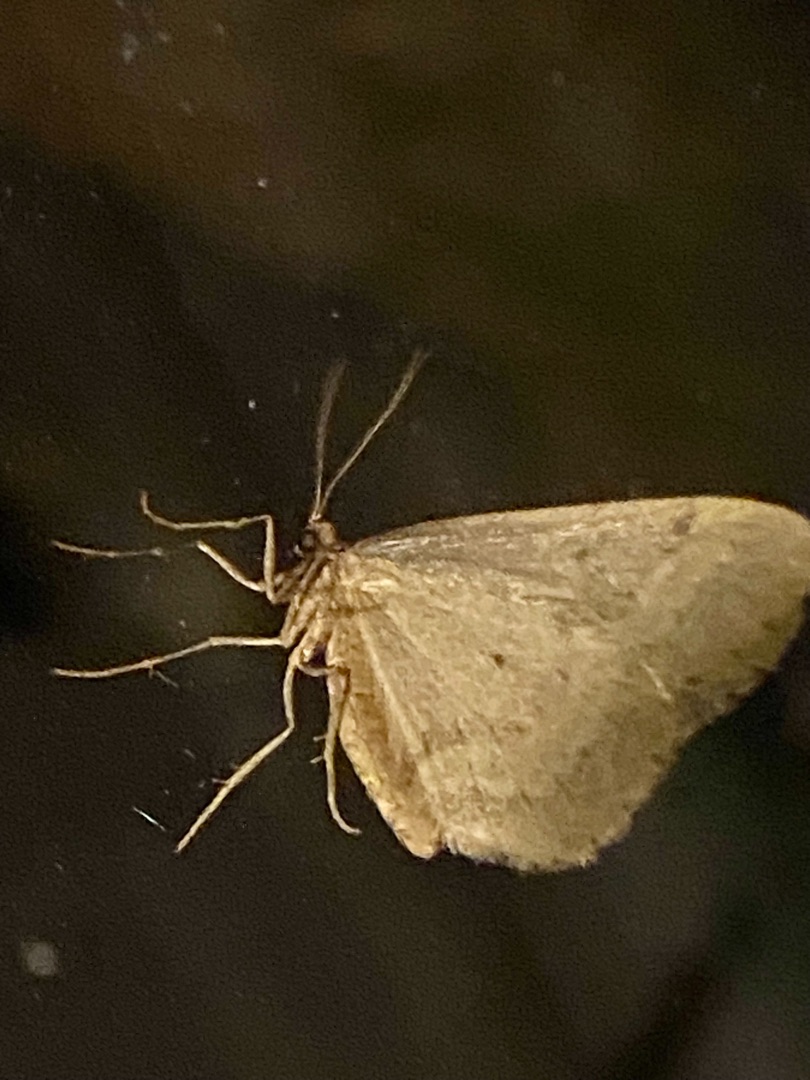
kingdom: Animalia
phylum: Arthropoda
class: Insecta
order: Lepidoptera
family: Geometridae
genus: Operophtera
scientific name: Operophtera brumata
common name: Lille frostmåler
